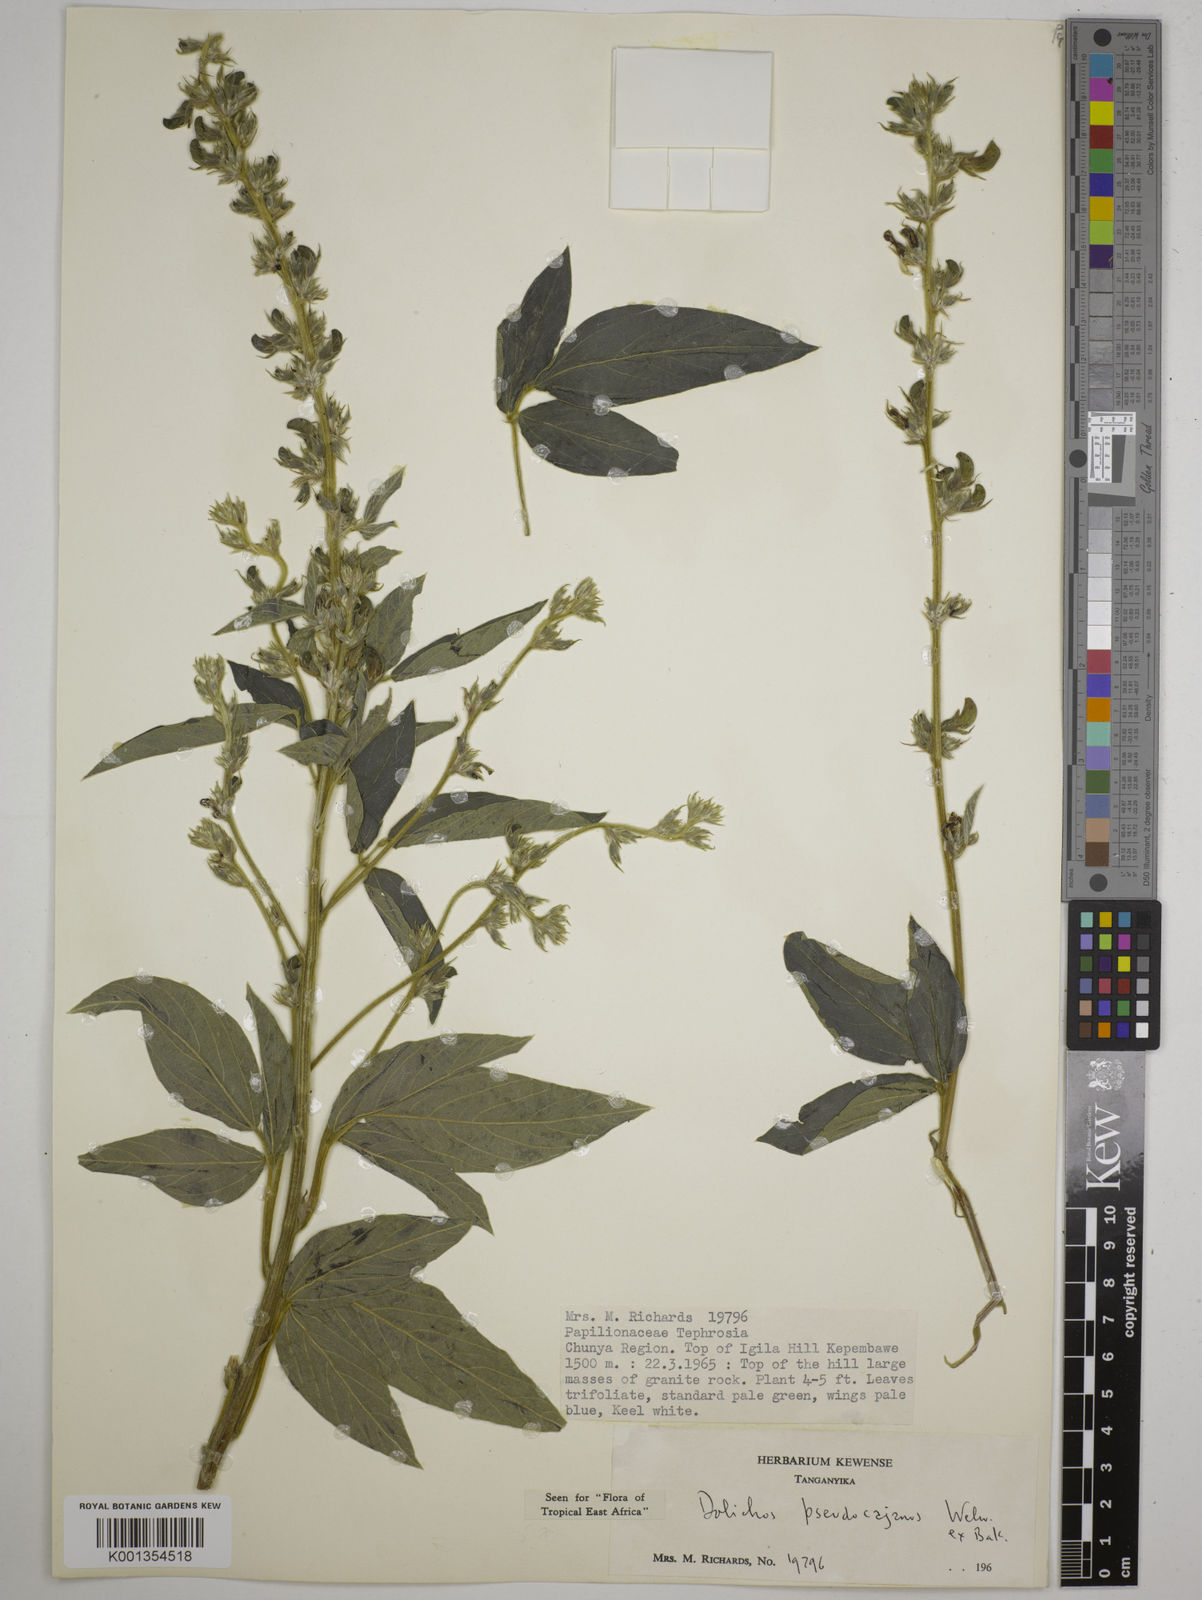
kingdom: Plantae
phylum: Tracheophyta
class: Magnoliopsida
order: Fabales
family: Fabaceae
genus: Dolichos
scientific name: Dolichos pseudocajanus
